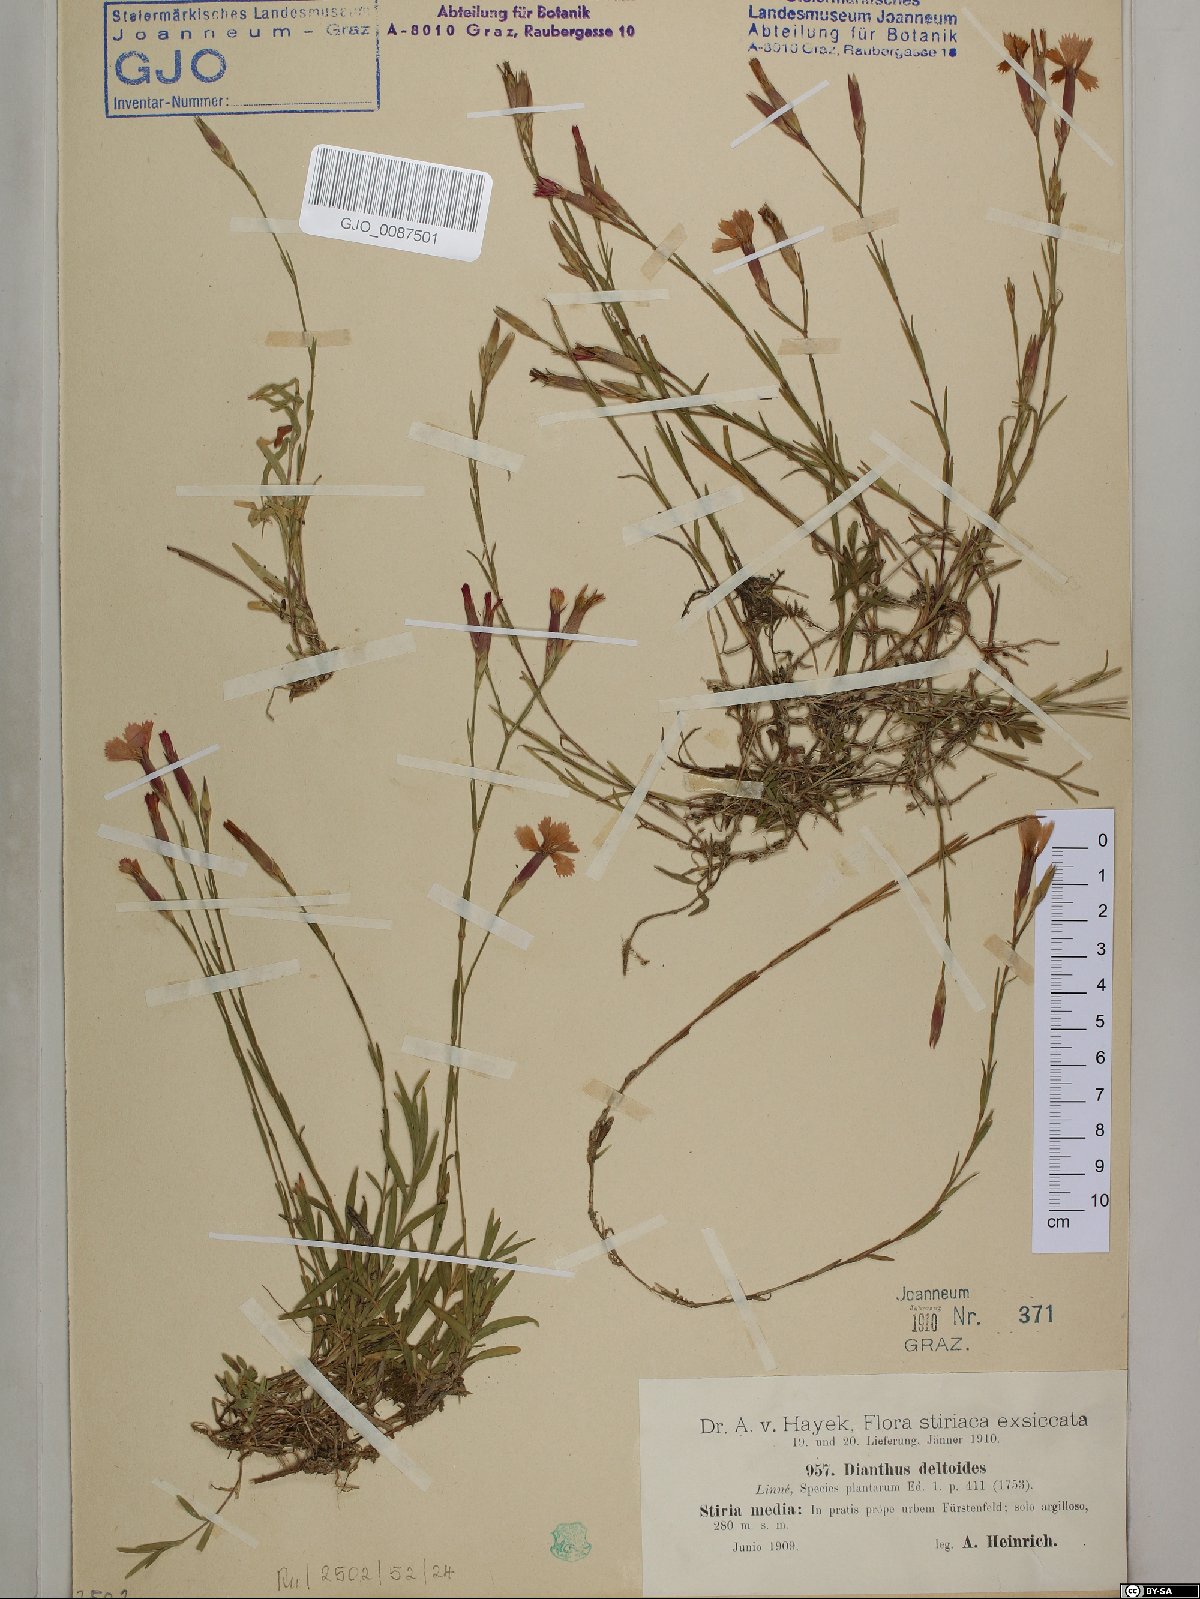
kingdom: Plantae
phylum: Tracheophyta
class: Magnoliopsida
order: Caryophyllales
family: Caryophyllaceae
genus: Dianthus
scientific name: Dianthus deltoides
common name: Maiden pink
